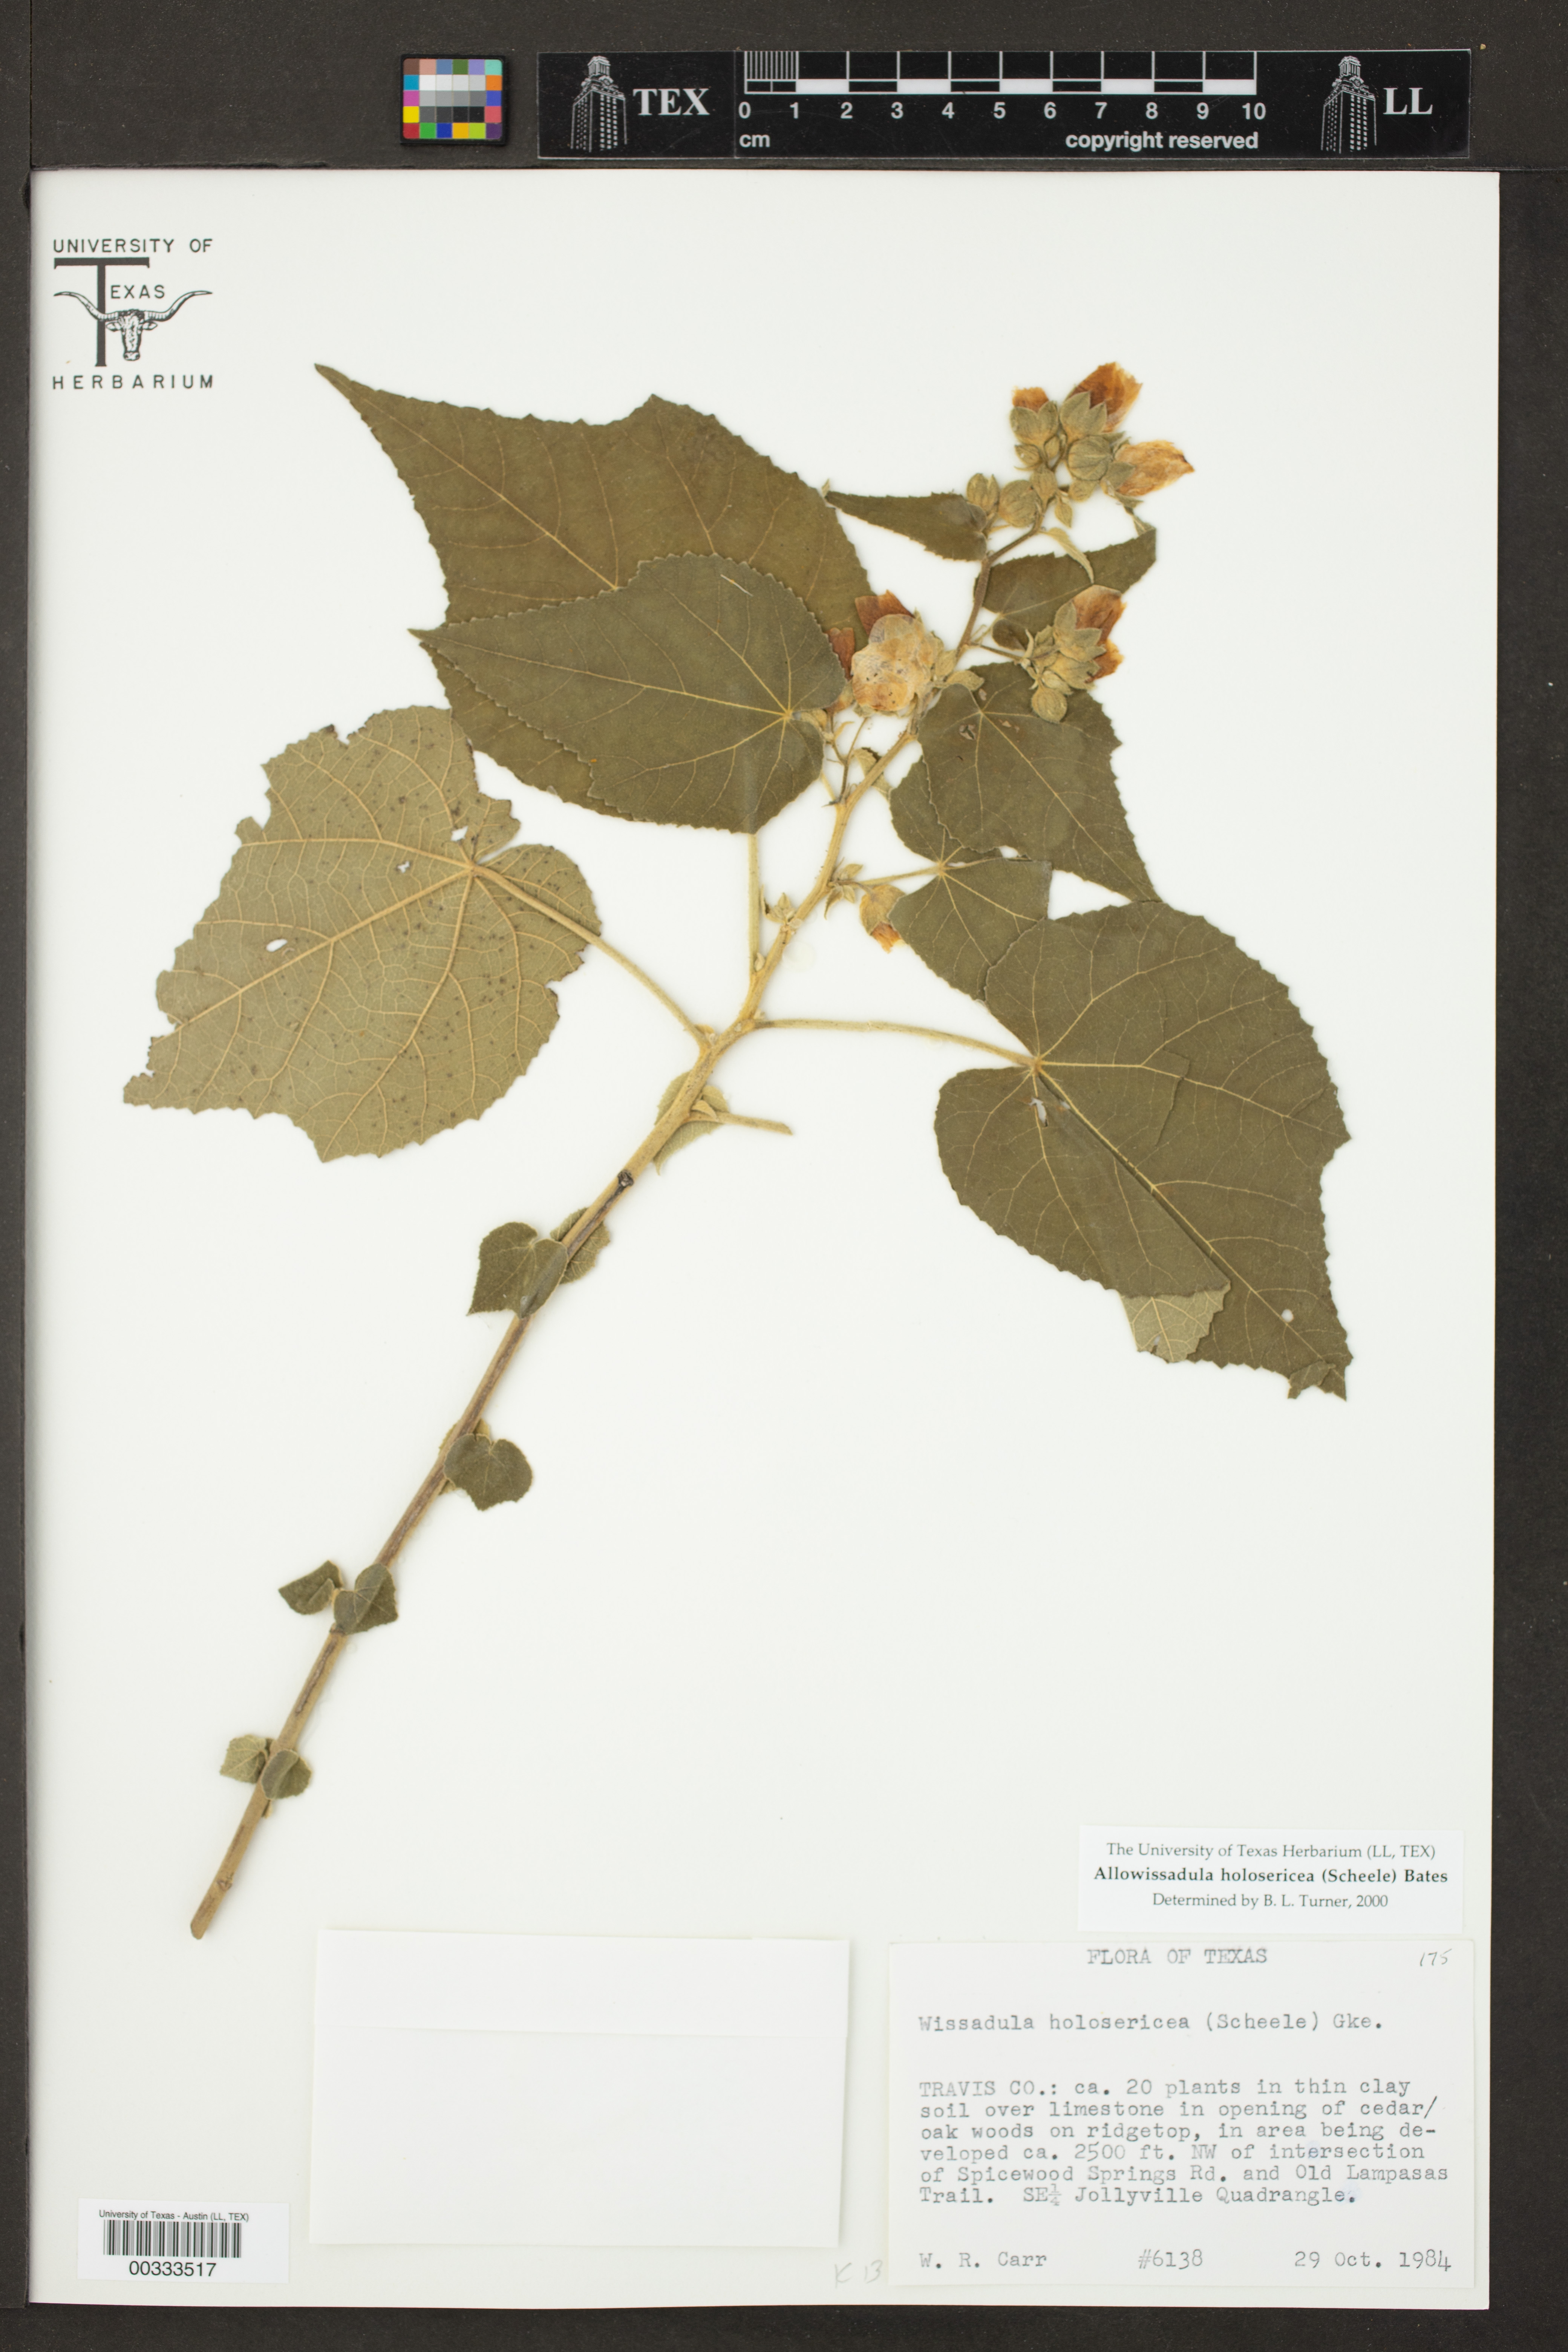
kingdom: Plantae
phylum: Tracheophyta
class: Magnoliopsida
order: Malvales
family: Malvaceae
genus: Allowissadula
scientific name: Allowissadula holosericea
